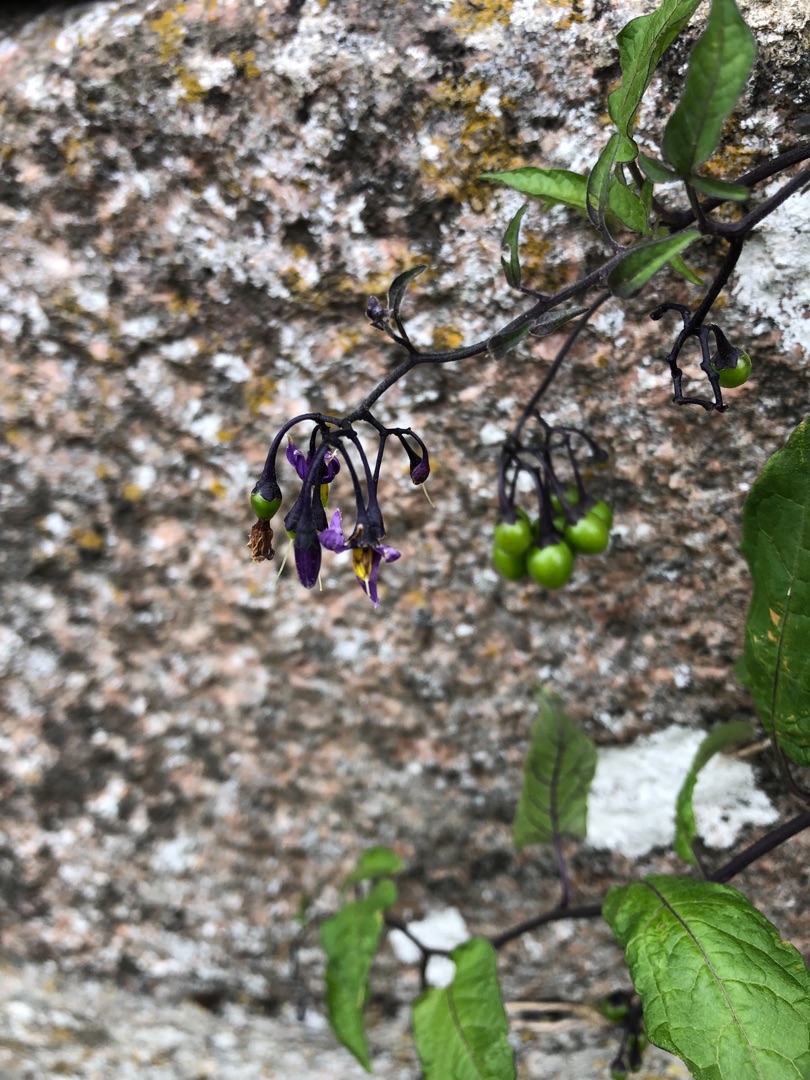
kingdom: Plantae
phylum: Tracheophyta
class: Magnoliopsida
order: Solanales
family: Solanaceae
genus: Solanum
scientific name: Solanum dulcamara
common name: Bittersød natskygge
